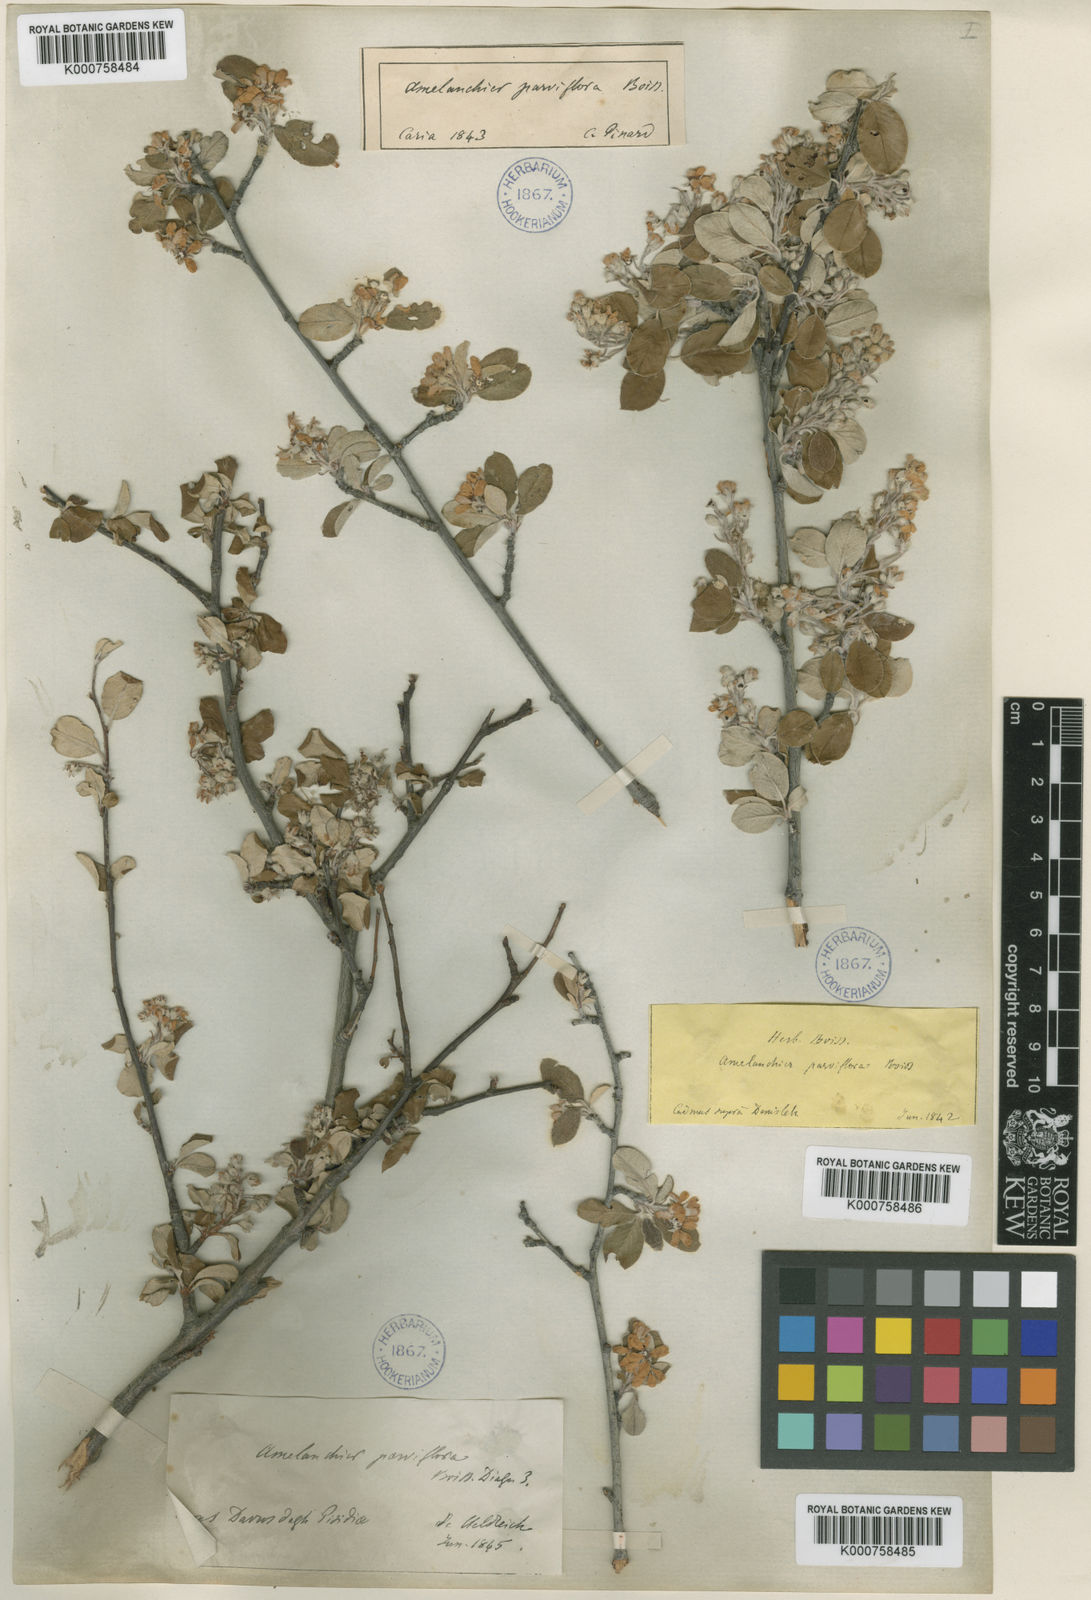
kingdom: Plantae
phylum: Tracheophyta
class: Magnoliopsida
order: Rosales
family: Rosaceae
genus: Amelanchier
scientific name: Amelanchier parviflora
